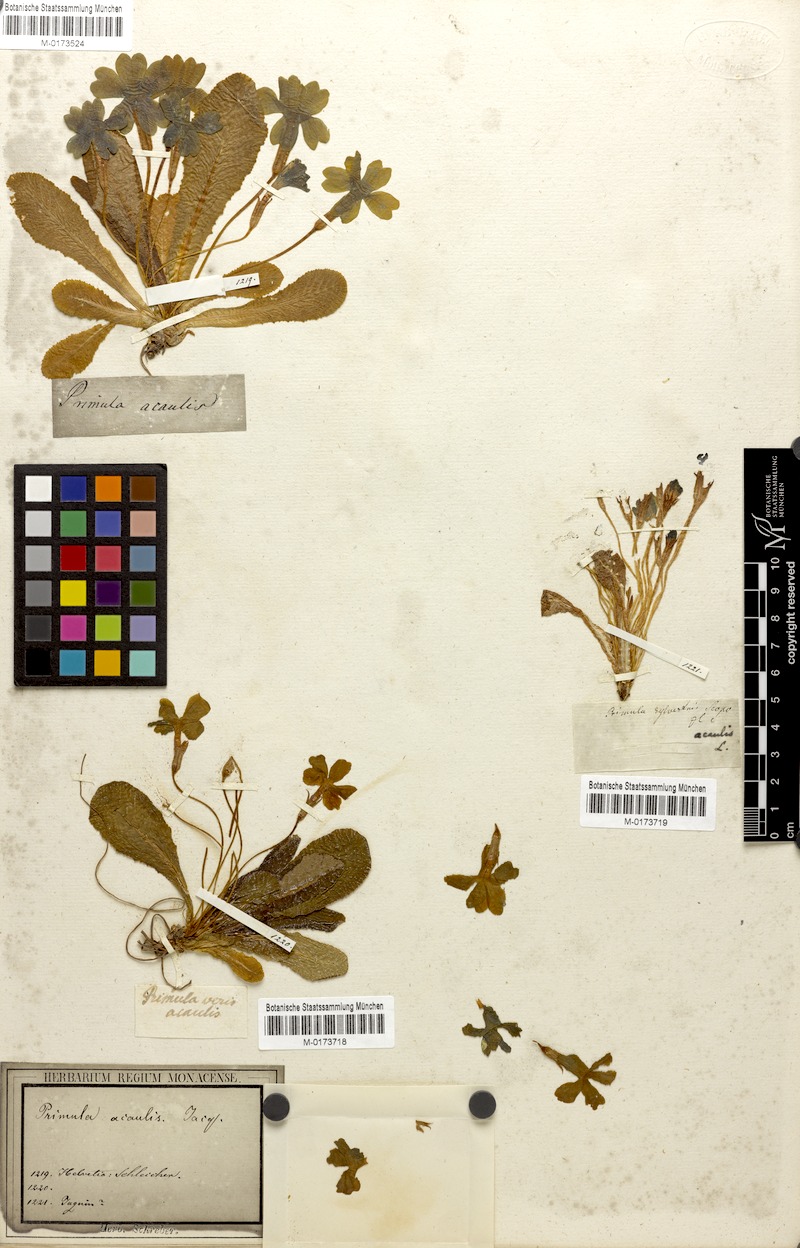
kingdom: Plantae
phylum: Tracheophyta
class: Magnoliopsida
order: Ericales
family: Primulaceae
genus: Primula
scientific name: Primula vulgaris
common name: Primrose
